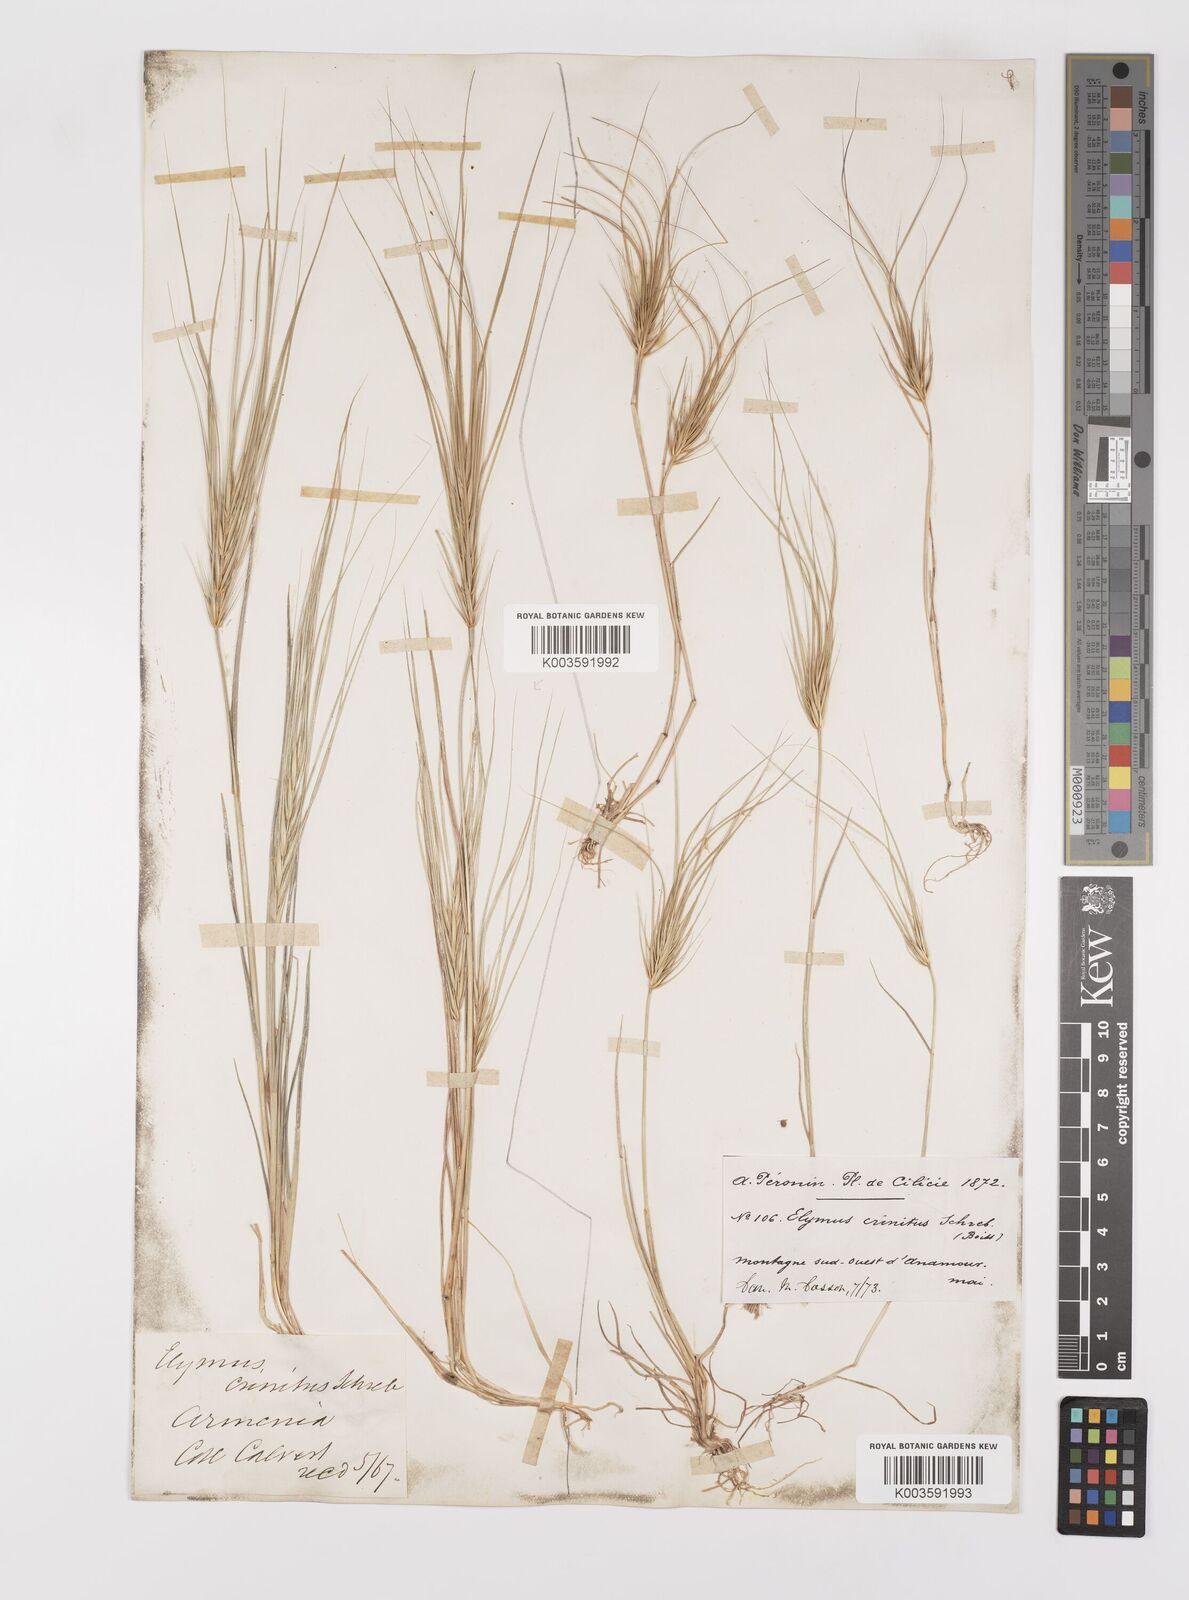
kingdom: Plantae
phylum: Tracheophyta
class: Liliopsida
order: Poales
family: Poaceae
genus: Taeniatherum
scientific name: Taeniatherum caput-medusae
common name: Medusahead
